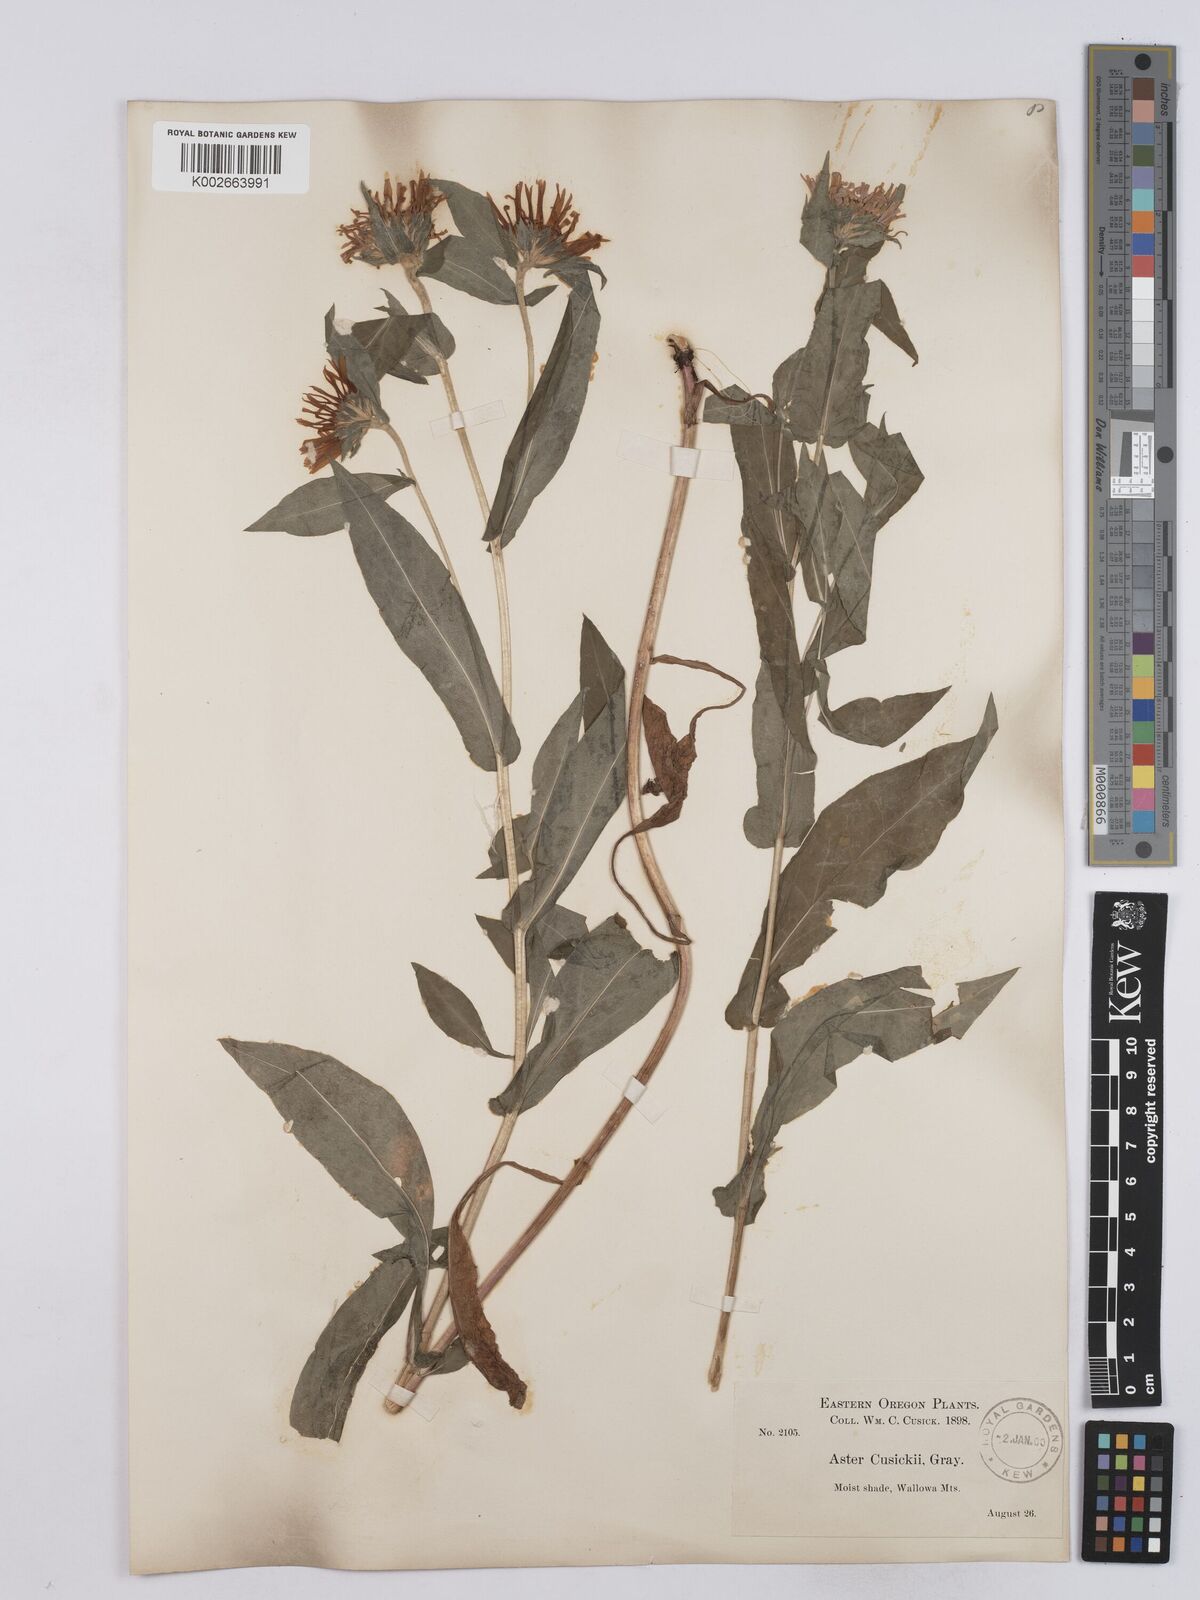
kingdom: Plantae
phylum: Tracheophyta
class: Magnoliopsida
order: Asterales
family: Asteraceae
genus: Symphyotrichum
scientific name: Symphyotrichum foliaceum
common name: Leafy aster
